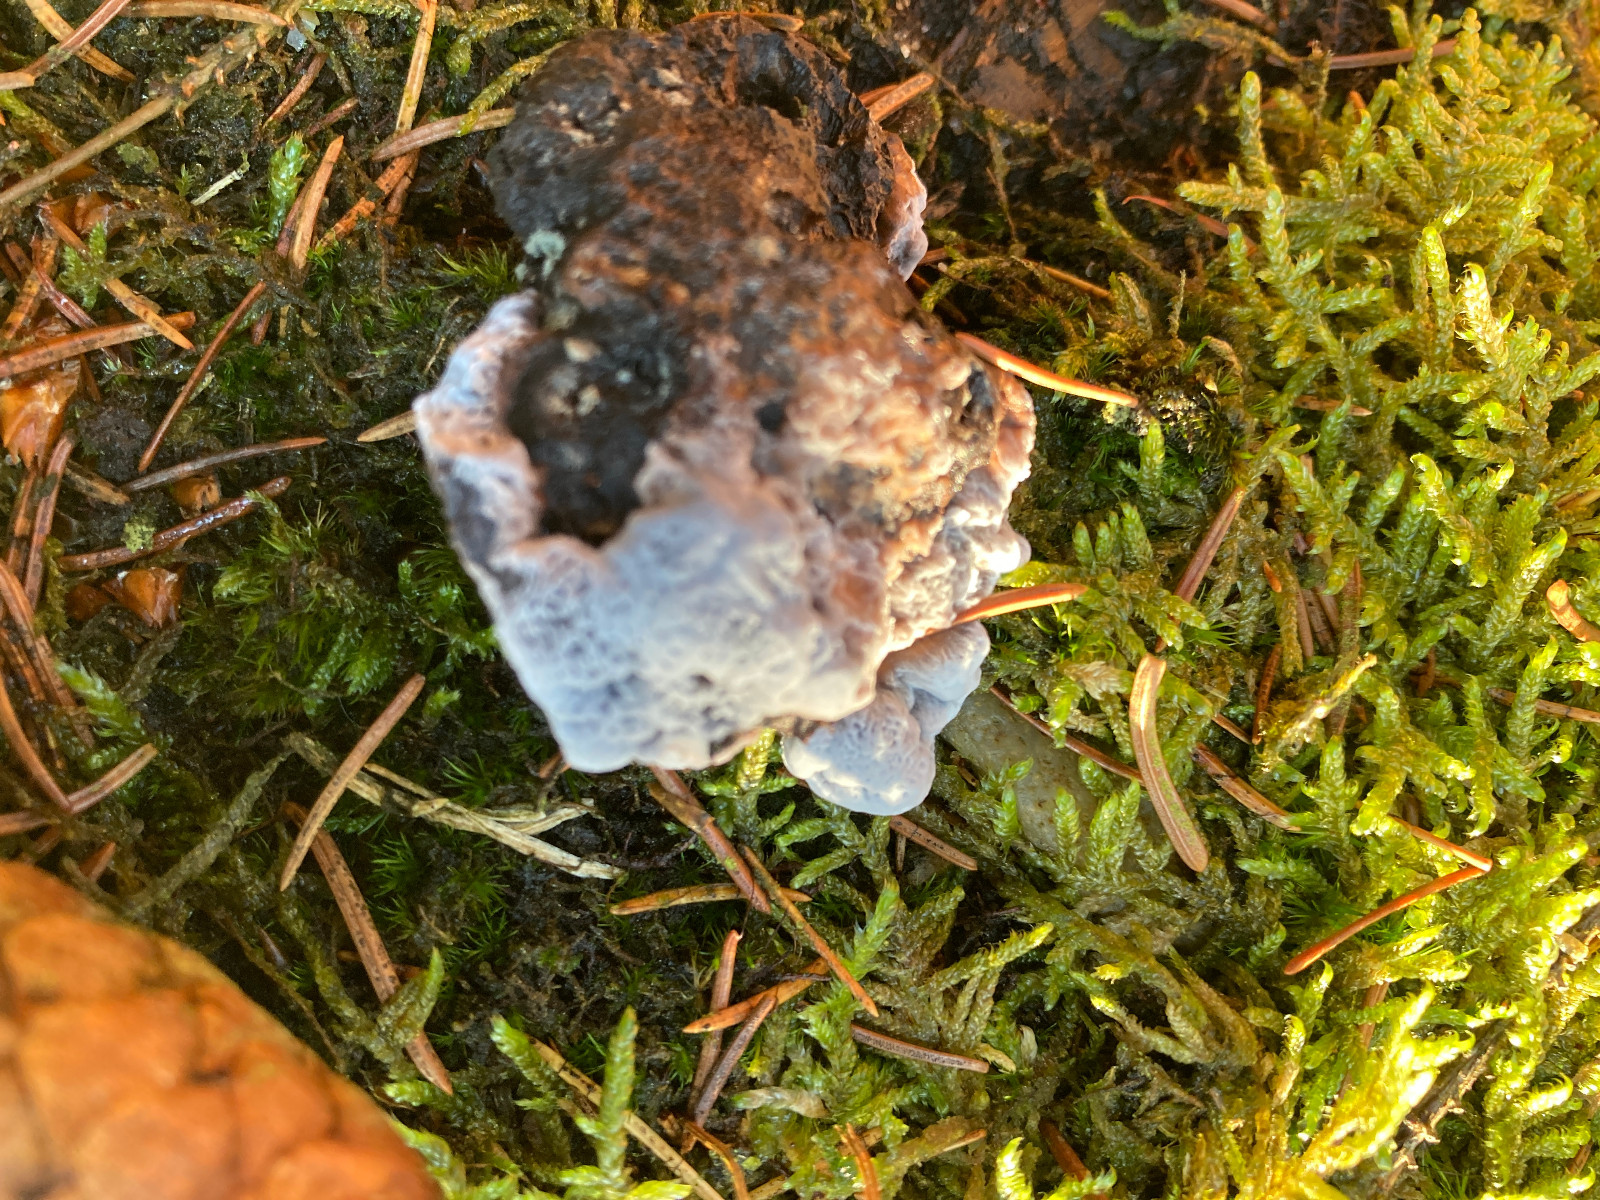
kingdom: Fungi
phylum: Basidiomycota
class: Agaricomycetes
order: Thelephorales
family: Bankeraceae
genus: Hydnellum
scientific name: Hydnellum caeruleum
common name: blålig korkpigsvamp
